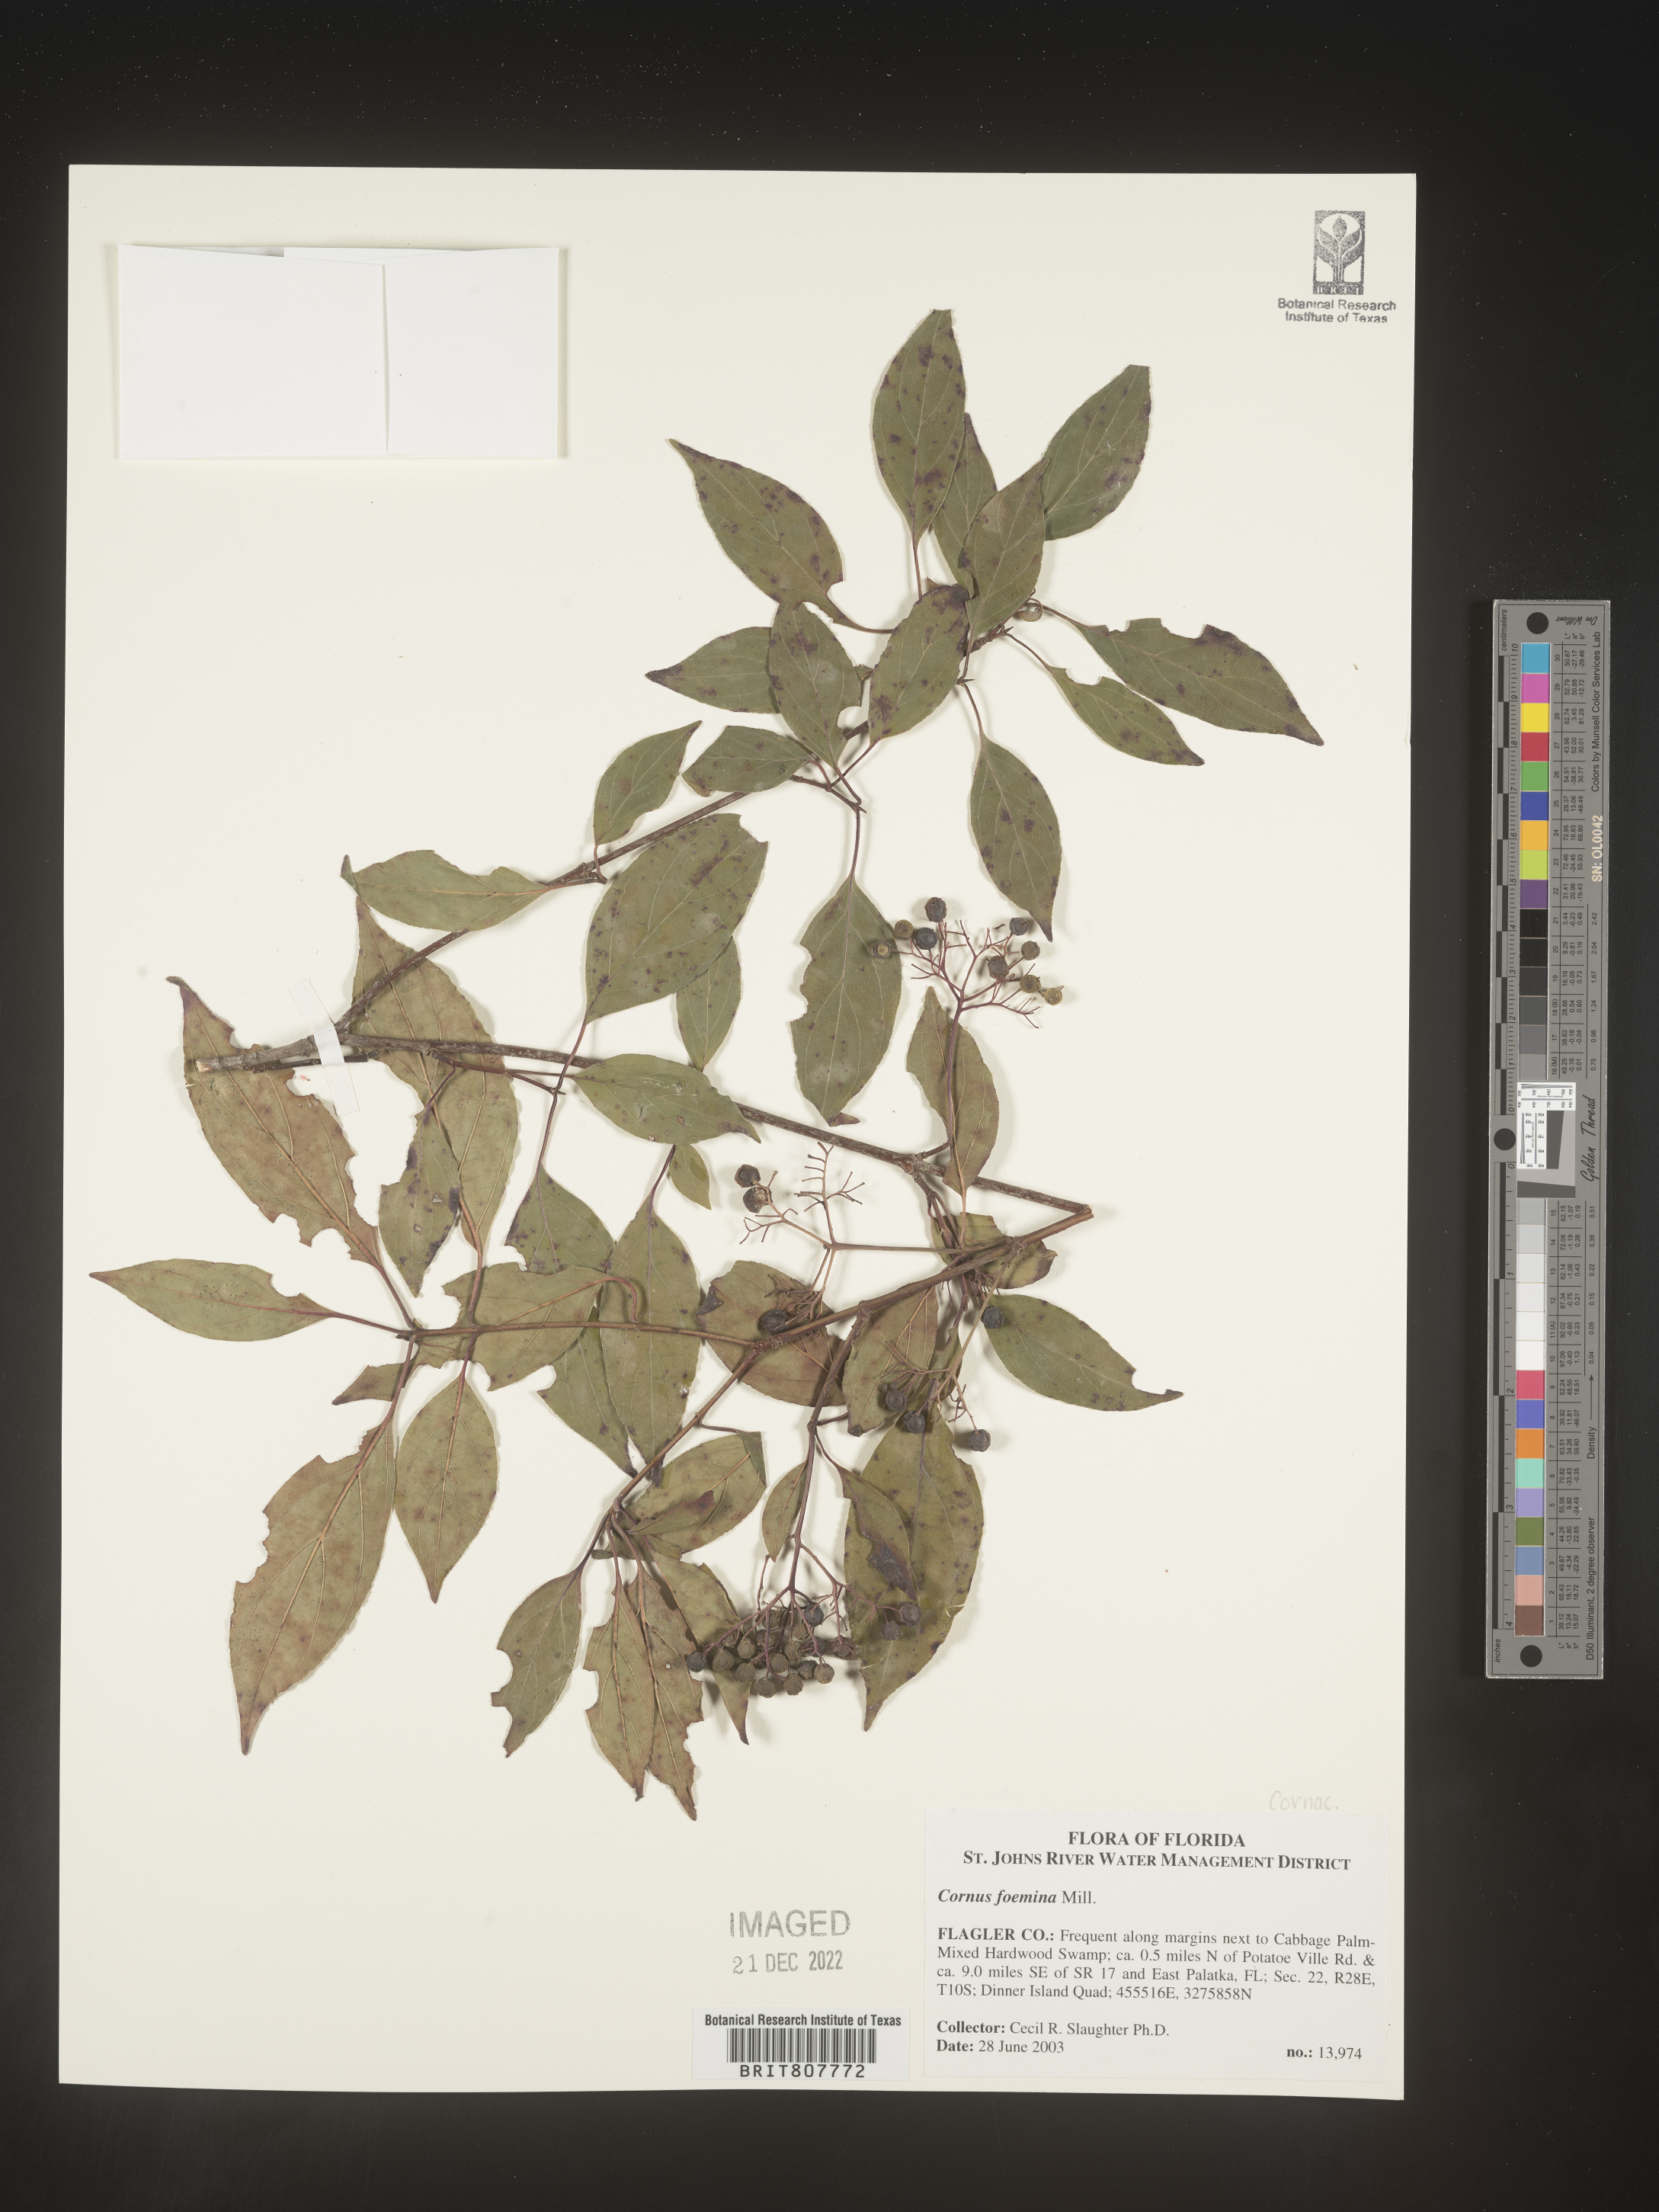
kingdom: Plantae
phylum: Tracheophyta
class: Magnoliopsida
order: Cornales
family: Cornaceae
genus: Cornus
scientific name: Cornus foemina
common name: Swamp dogwood
